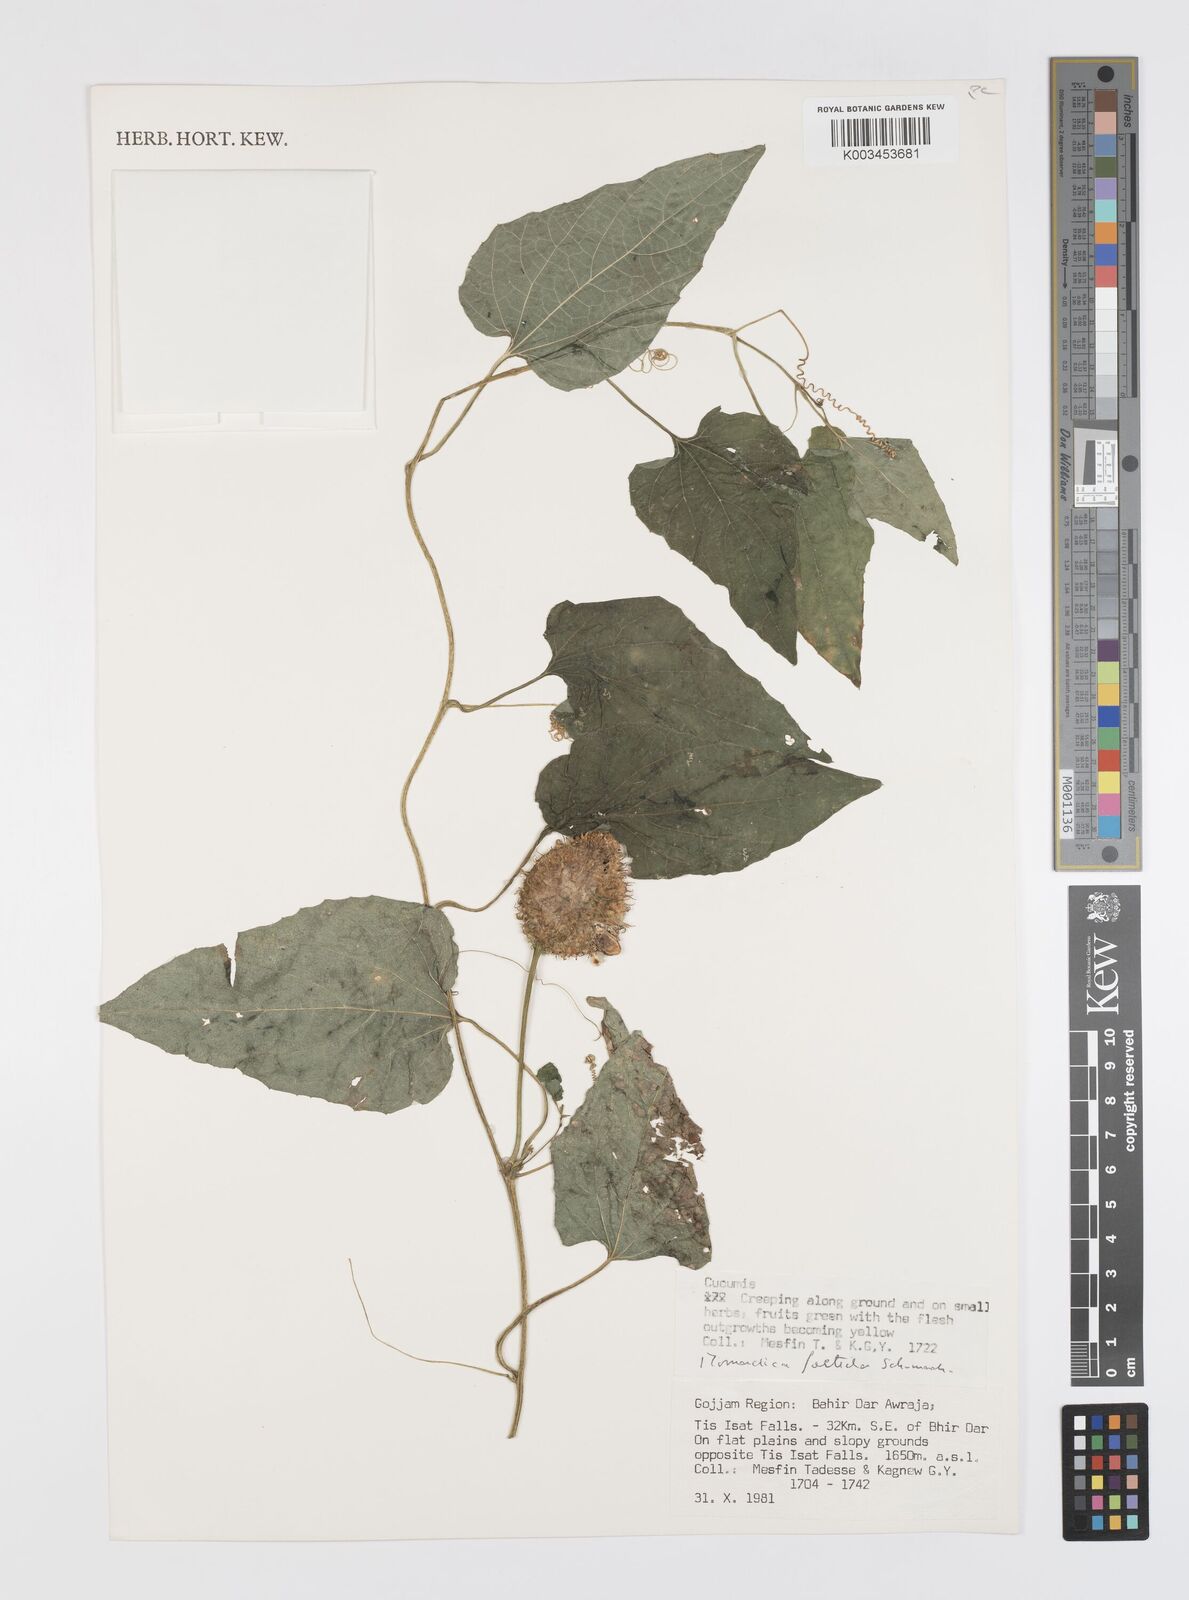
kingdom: Plantae
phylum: Tracheophyta
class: Magnoliopsida
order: Cucurbitales
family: Cucurbitaceae
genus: Momordica
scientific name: Momordica foetida
